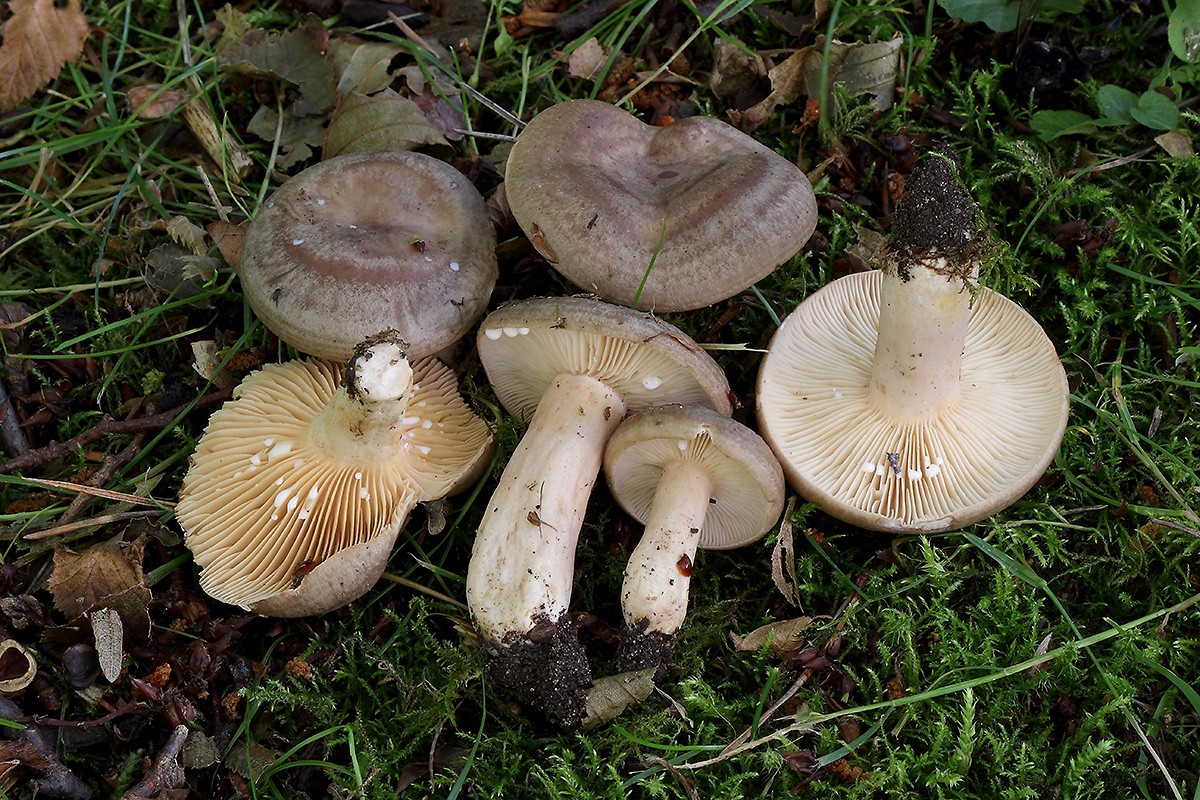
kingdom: Fungi
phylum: Basidiomycota
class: Agaricomycetes
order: Russulales
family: Russulaceae
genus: Lactarius
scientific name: Lactarius circellatus
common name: avnbøg-mælkehat
